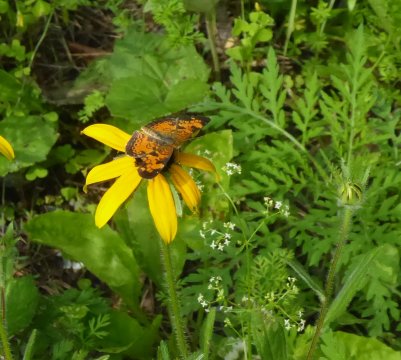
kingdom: Animalia
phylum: Arthropoda
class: Insecta
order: Lepidoptera
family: Nymphalidae
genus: Phyciodes
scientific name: Phyciodes
